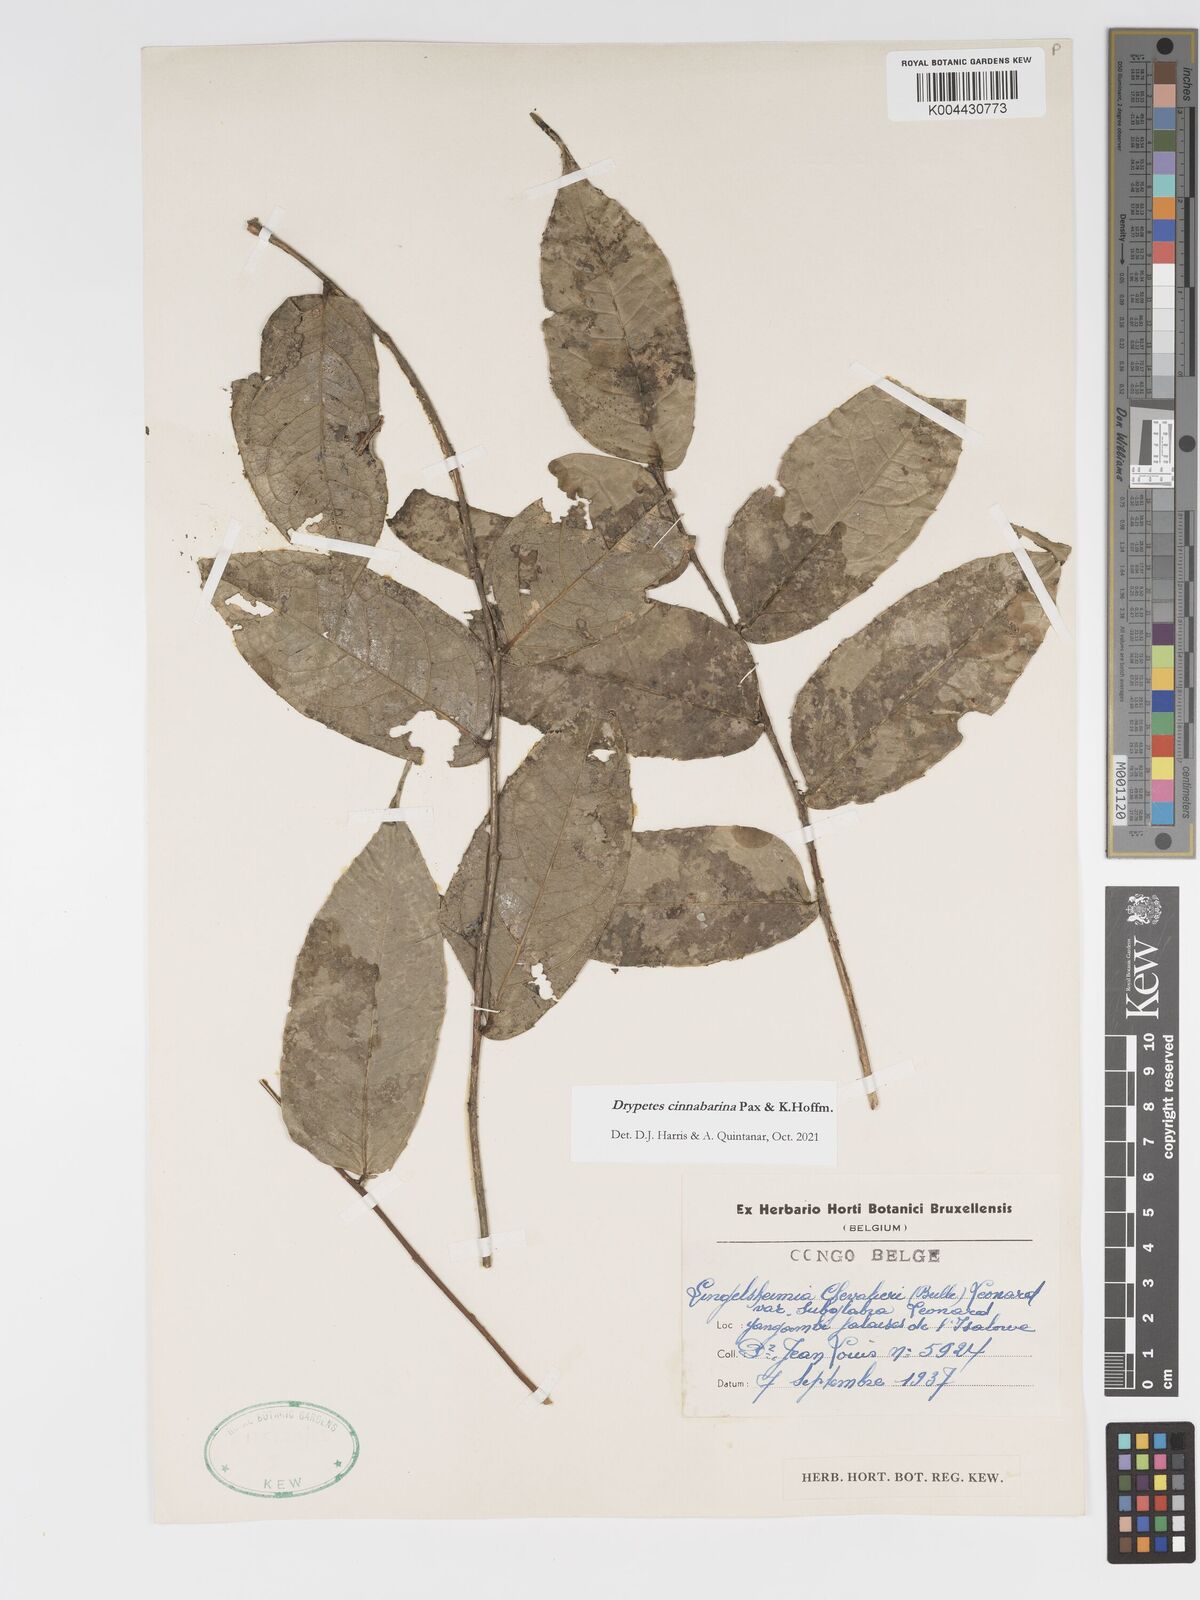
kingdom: Plantae
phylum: Tracheophyta
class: Magnoliopsida
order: Malpighiales
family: Putranjivaceae
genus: Drypetes
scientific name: Drypetes cinnabarina
